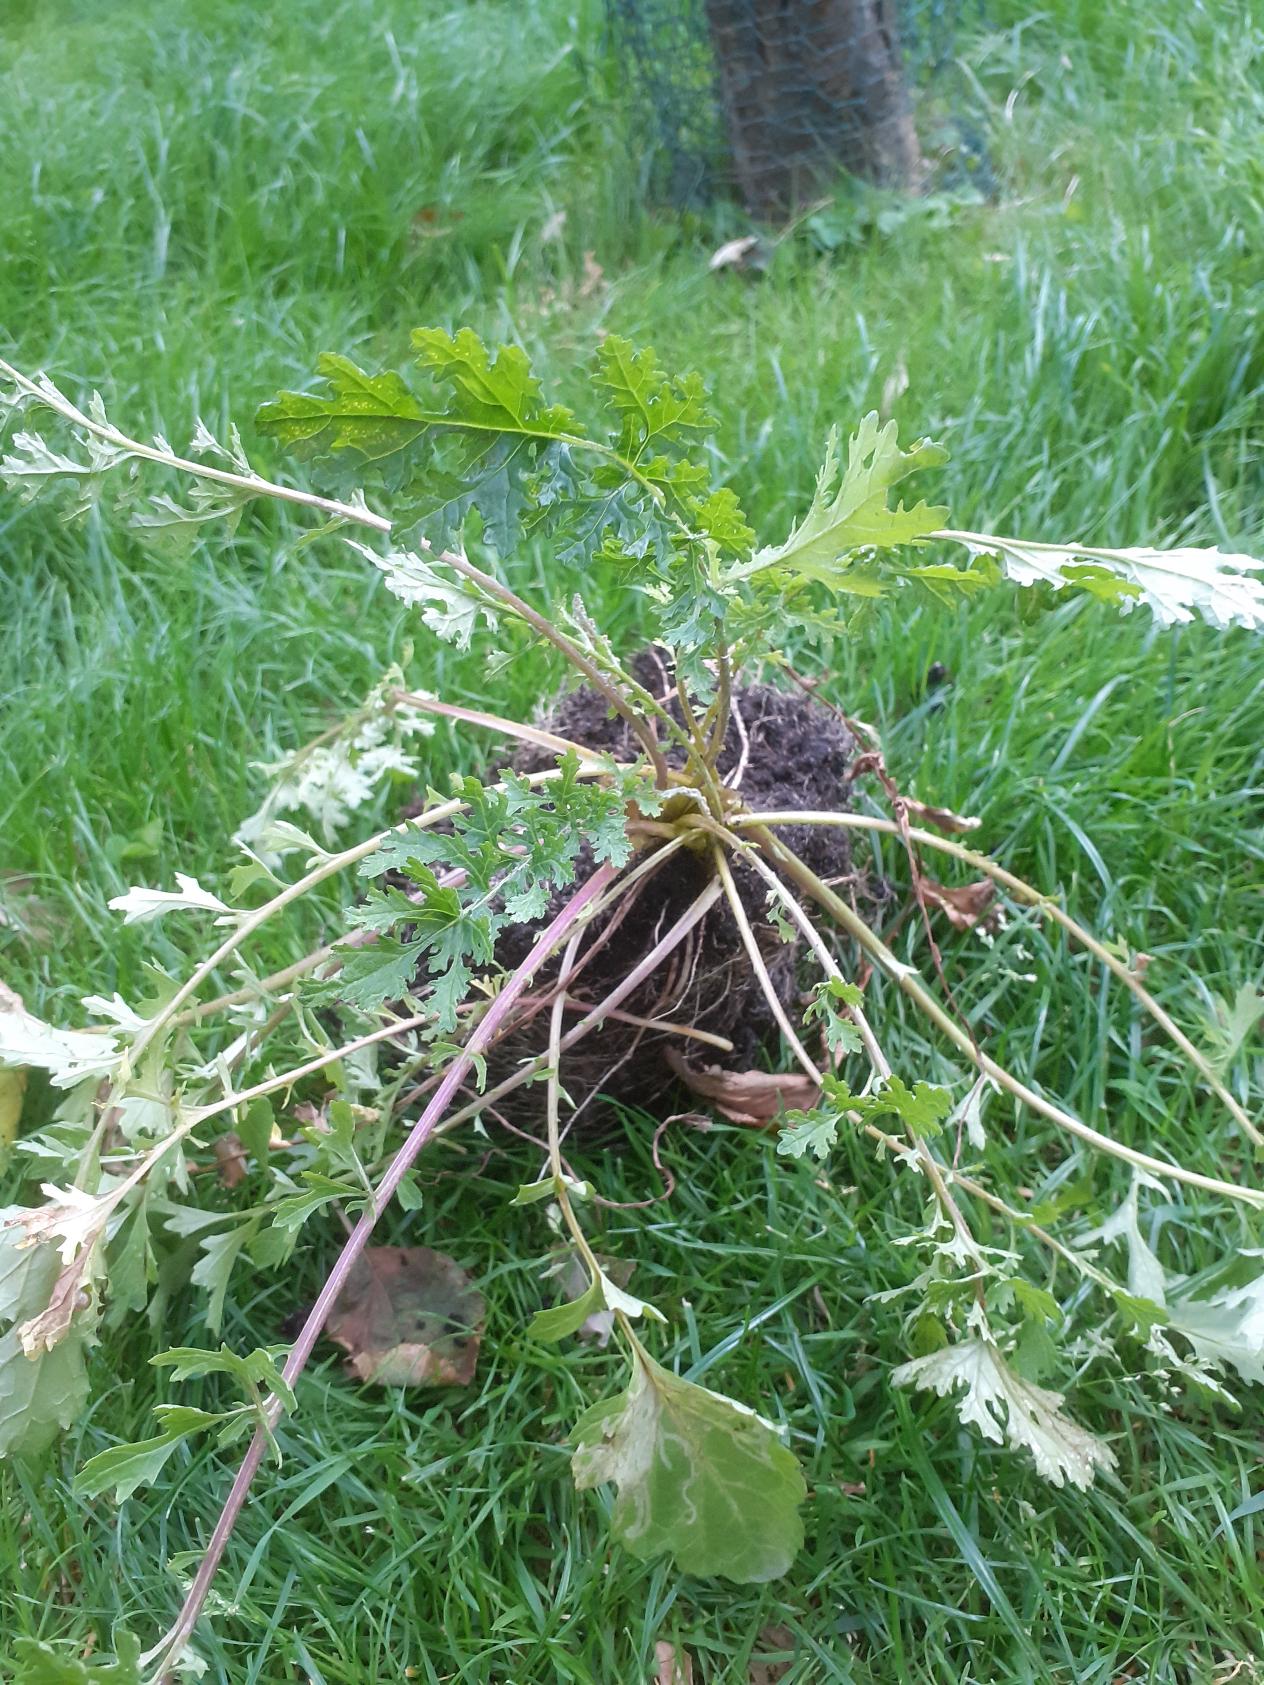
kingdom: Plantae
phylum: Tracheophyta
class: Magnoliopsida
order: Asterales
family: Asteraceae
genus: Jacobaea
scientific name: Jacobaea vulgaris
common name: Eng-brandbæger
